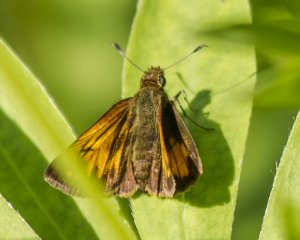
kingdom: Animalia
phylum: Arthropoda
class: Insecta
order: Lepidoptera
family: Hesperiidae
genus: Lon
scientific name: Lon hobomok
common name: Hobomok Skipper
